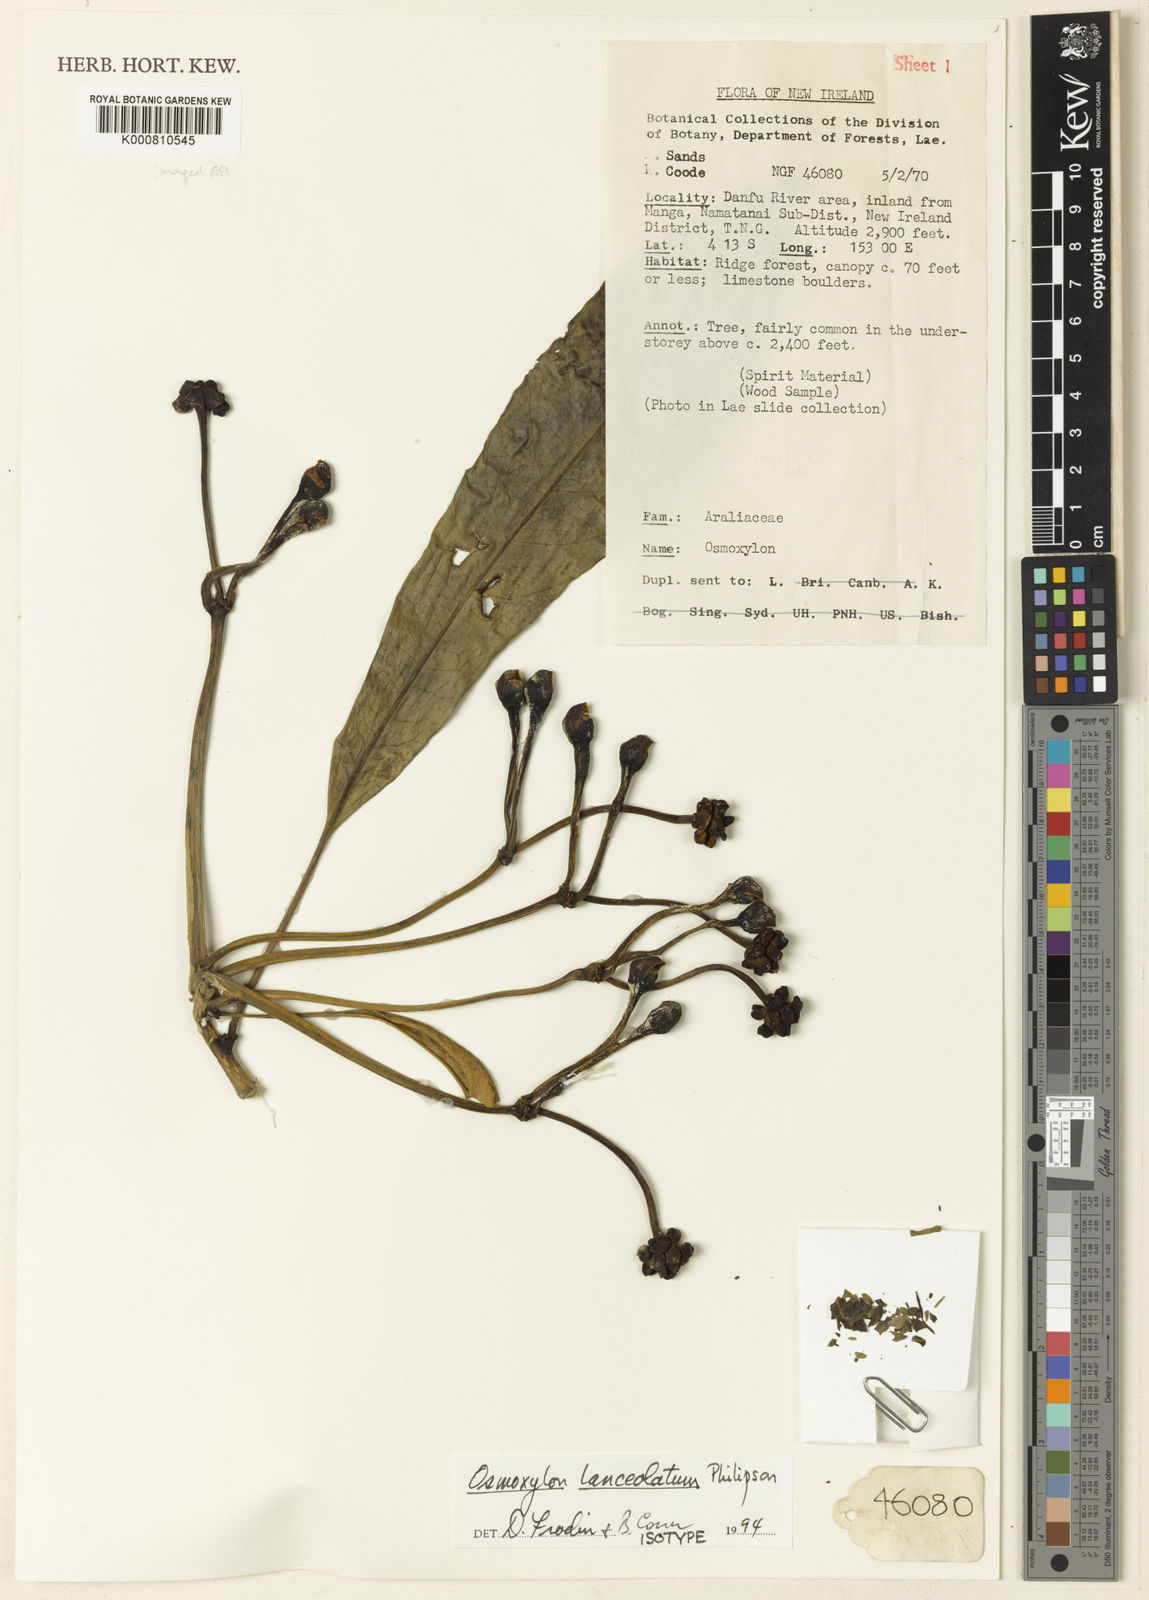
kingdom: Plantae
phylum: Tracheophyta
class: Magnoliopsida
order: Apiales
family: Araliaceae
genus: Osmoxylon
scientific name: Osmoxylon lanceolatum
